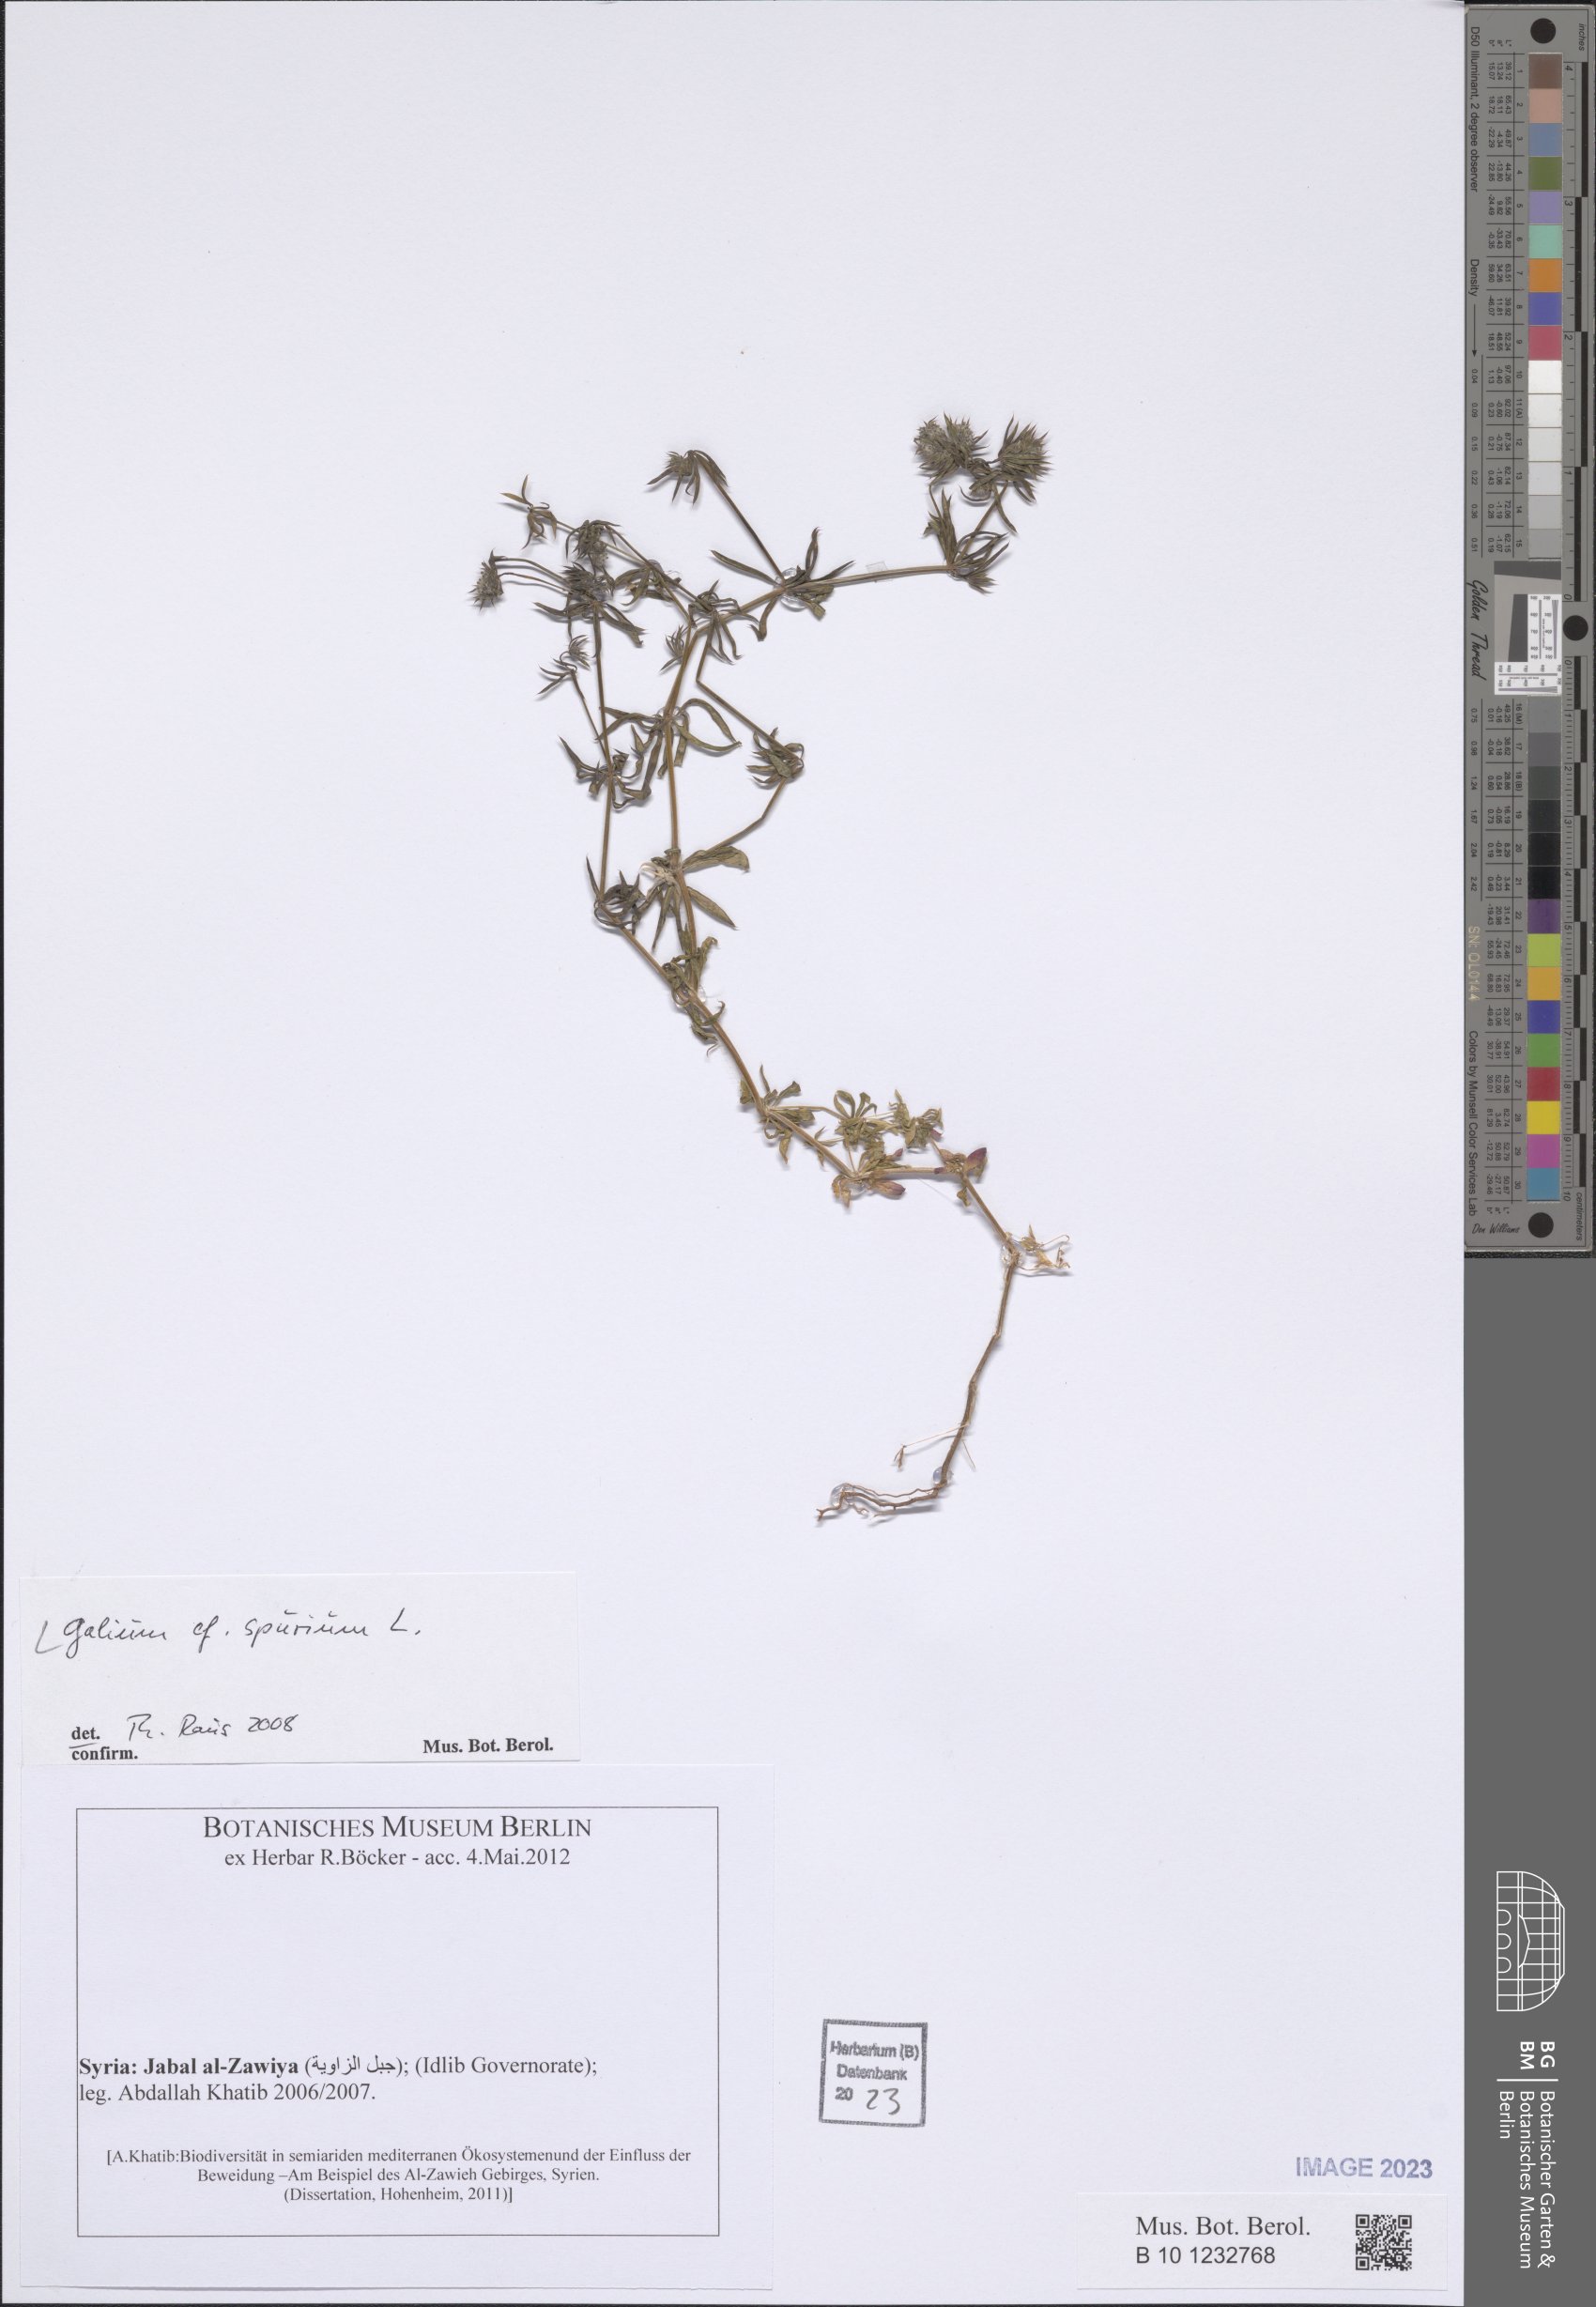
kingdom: Plantae
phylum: Tracheophyta
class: Magnoliopsida
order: Gentianales
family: Rubiaceae
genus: Galium
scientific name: Galium spurium
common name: False cleavers
